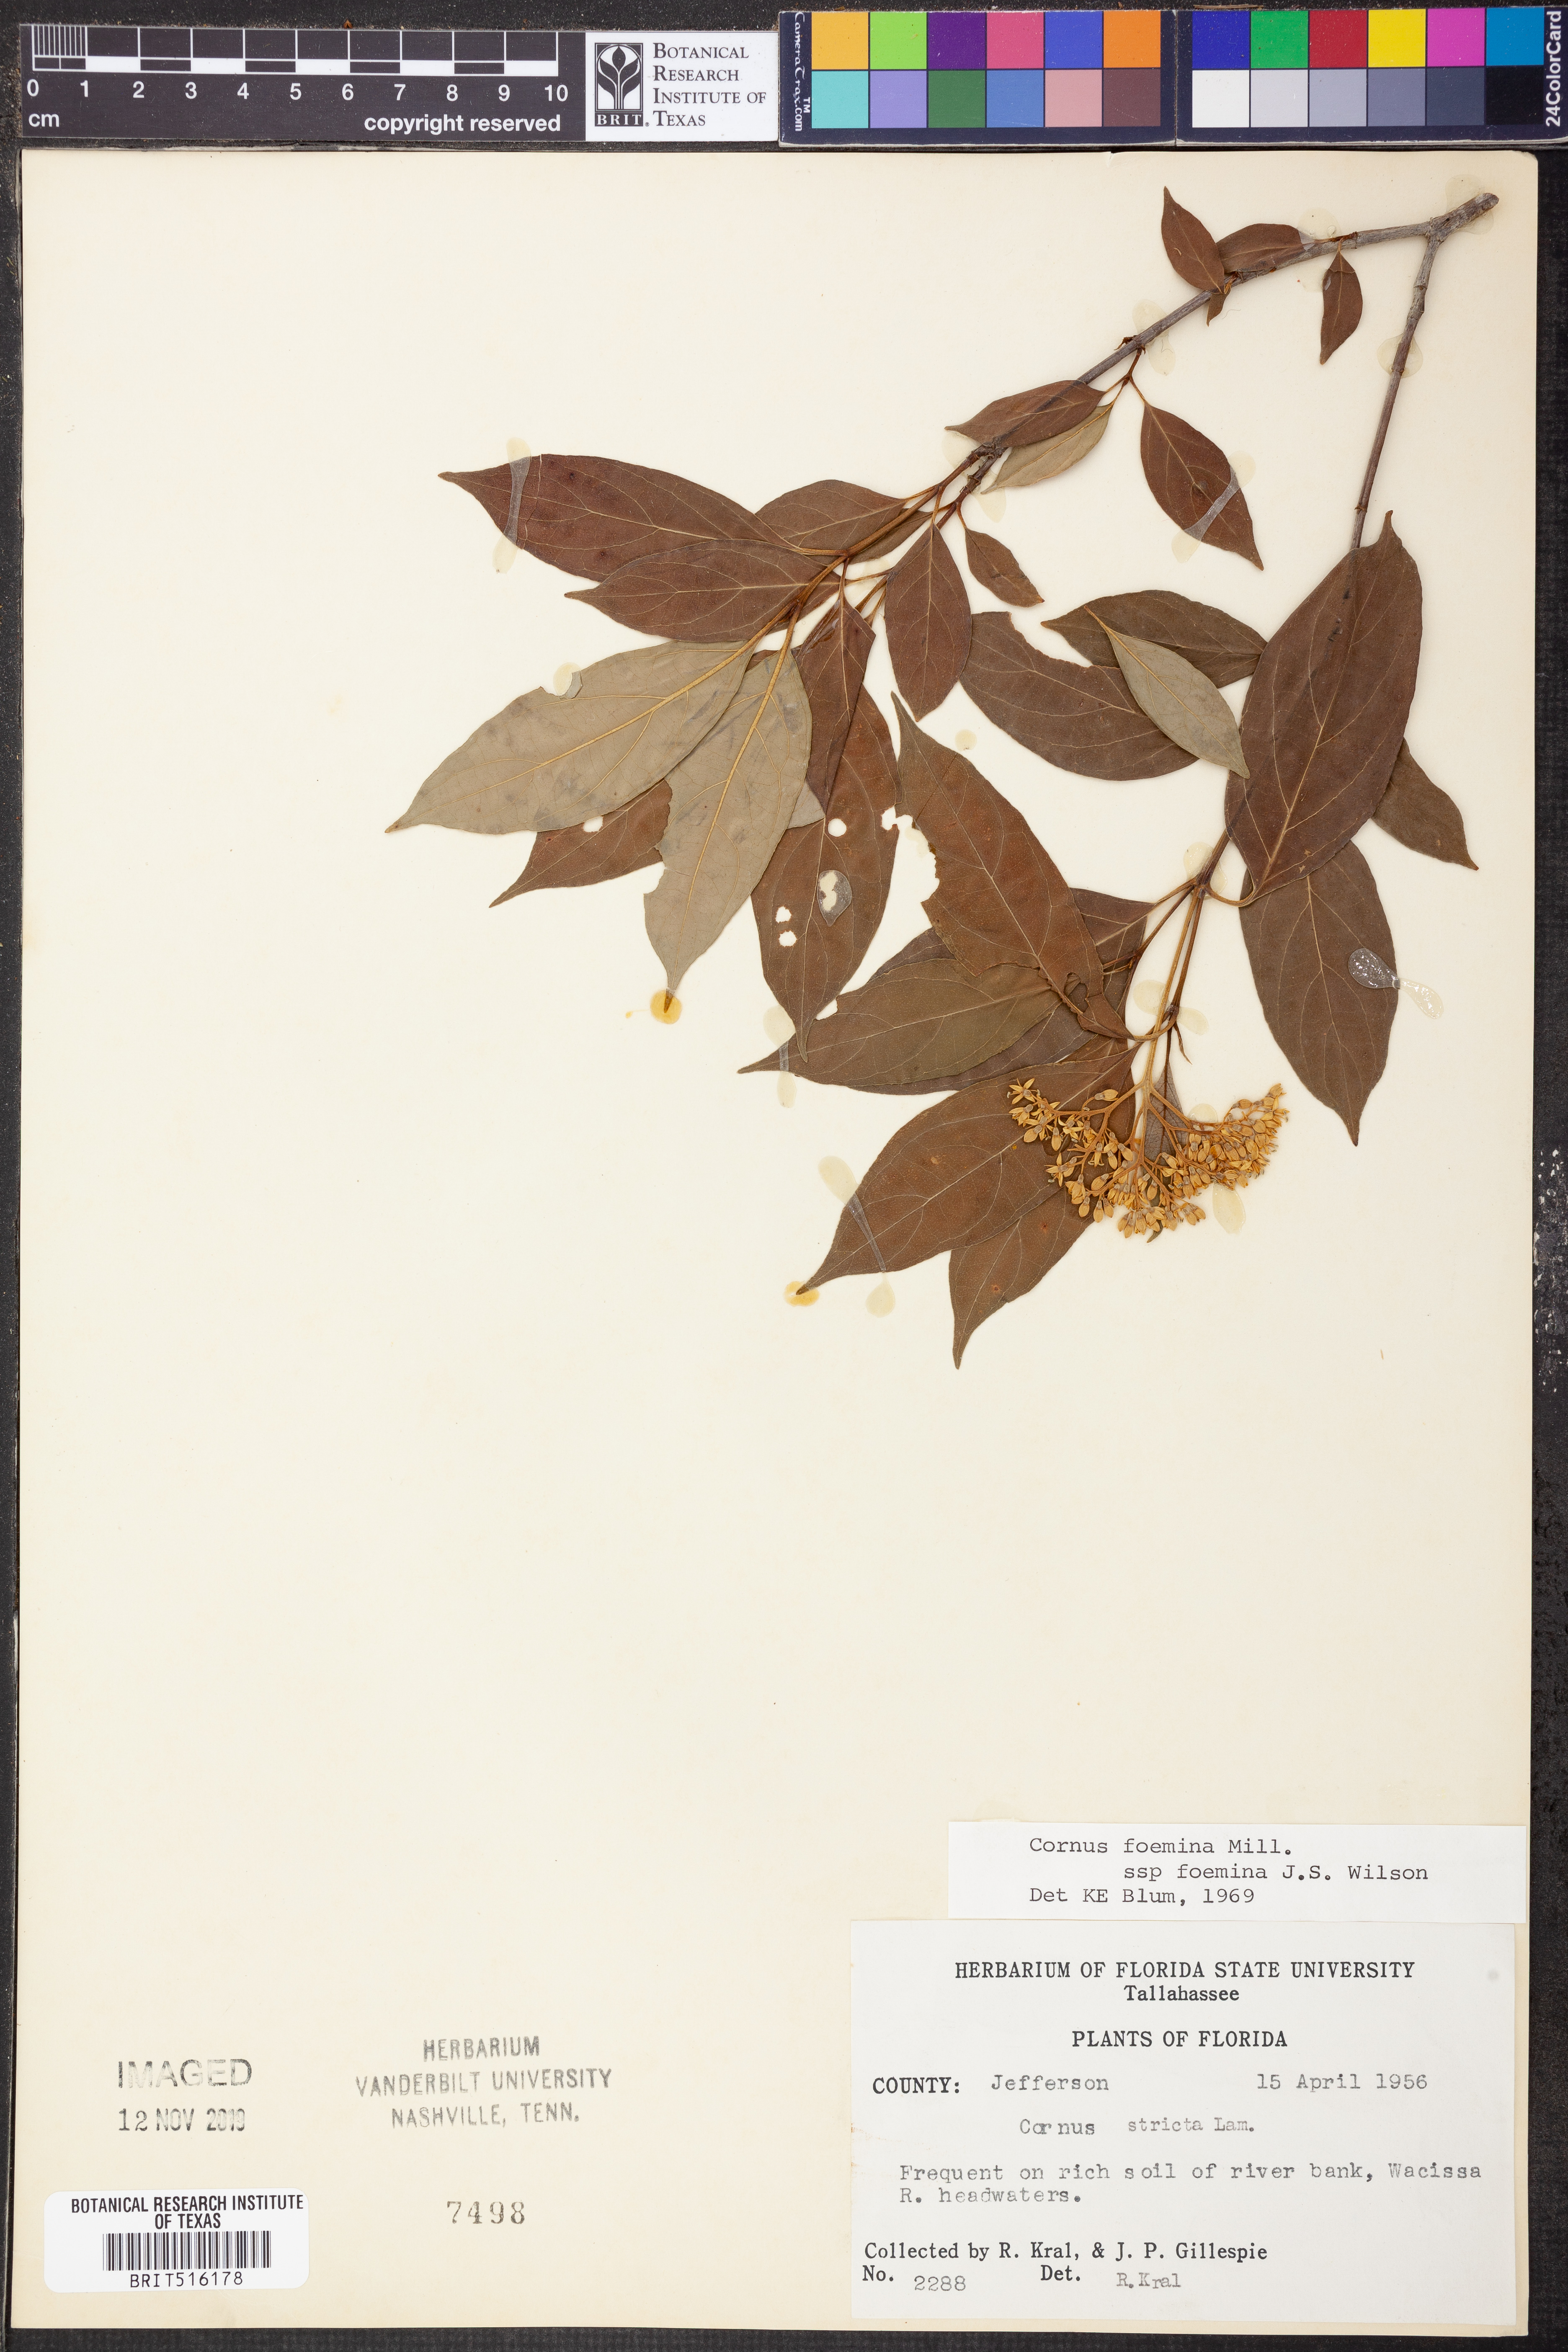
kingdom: Plantae
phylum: Tracheophyta
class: Magnoliopsida
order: Cornales
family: Cornaceae
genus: Cornus
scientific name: Cornus foemina
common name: Swamp dogwood
